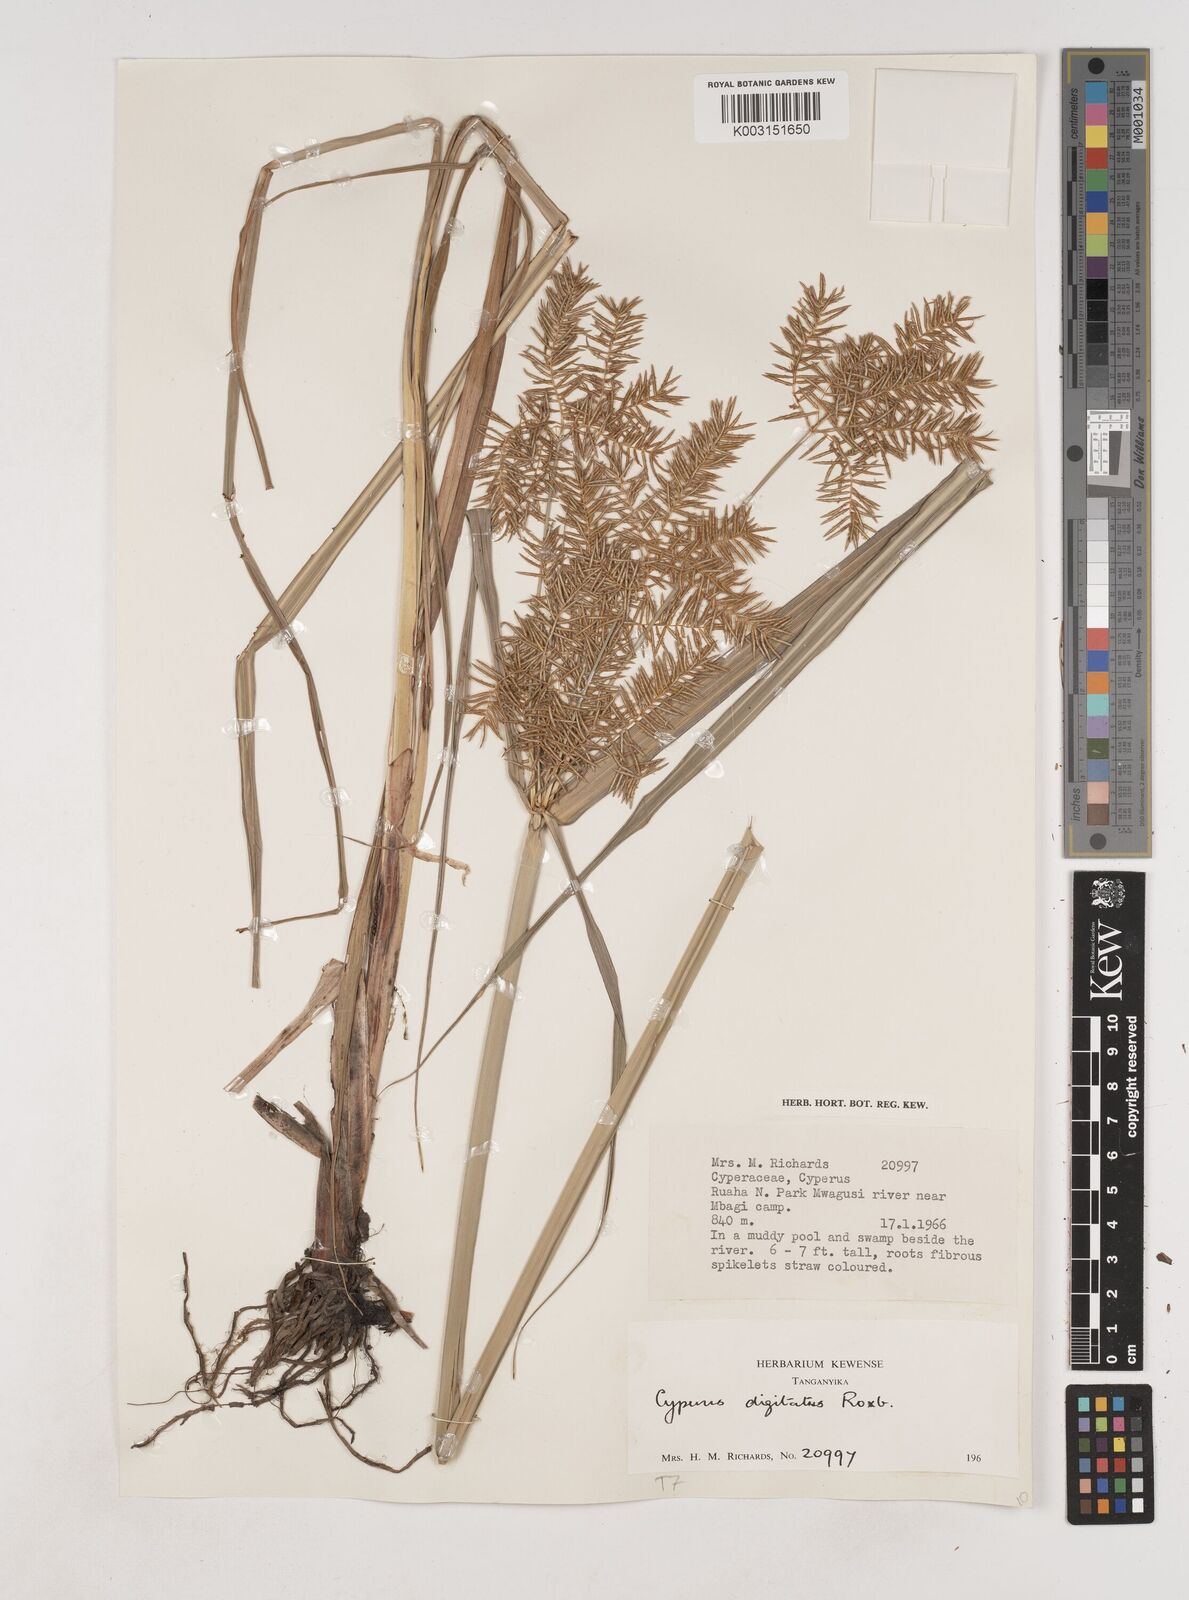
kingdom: Plantae
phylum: Tracheophyta
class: Liliopsida
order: Poales
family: Cyperaceae
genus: Cyperus
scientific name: Cyperus digitatus
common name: Finger flatsedge
